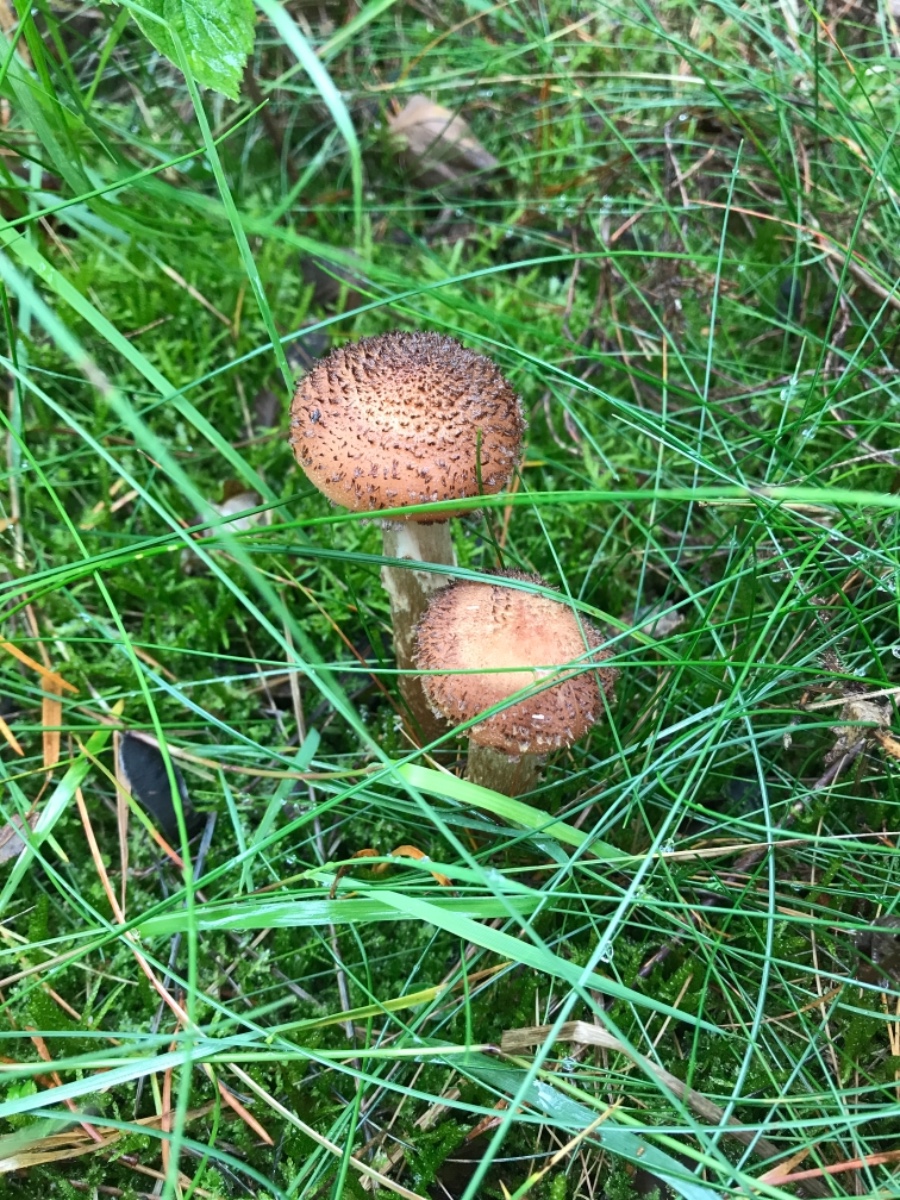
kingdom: Fungi
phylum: Basidiomycota
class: Agaricomycetes
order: Agaricales
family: Physalacriaceae
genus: Armillaria
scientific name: Armillaria ostoyae
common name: mørk honningsvamp
